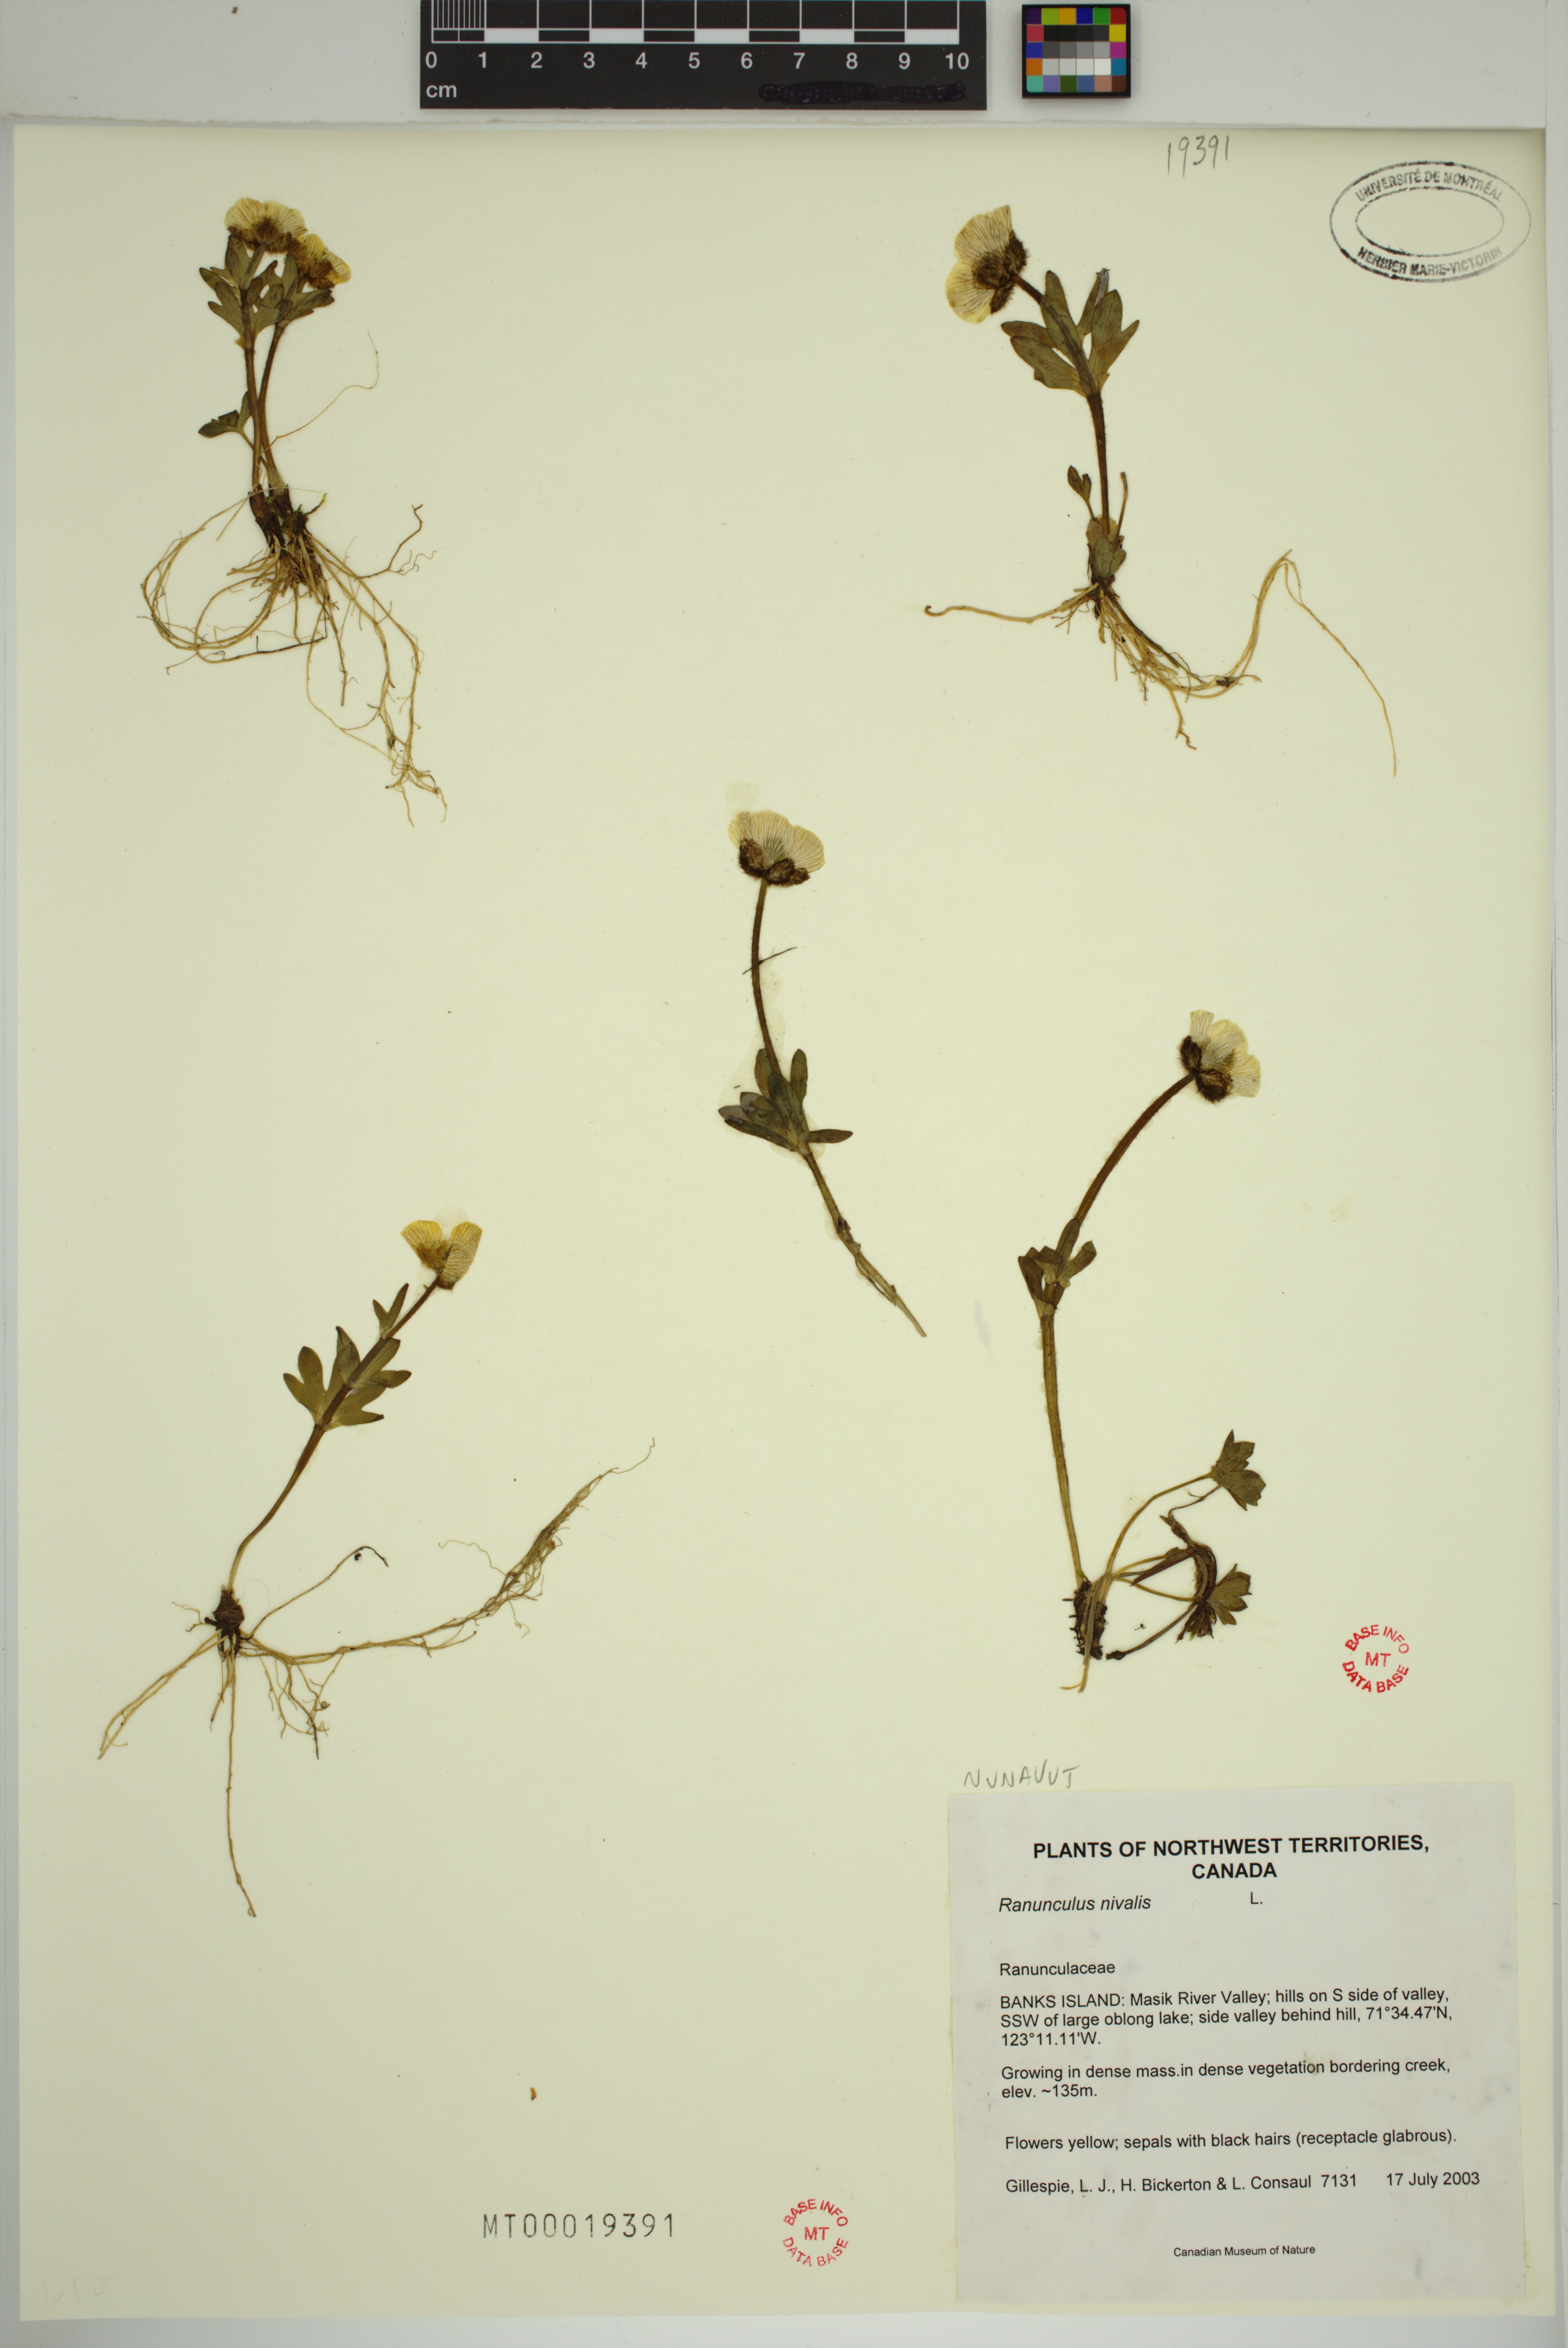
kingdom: Plantae
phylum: Tracheophyta
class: Magnoliopsida
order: Ranunculales
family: Ranunculaceae
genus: Ranunculus
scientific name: Ranunculus nivalis
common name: Snow buttercup
